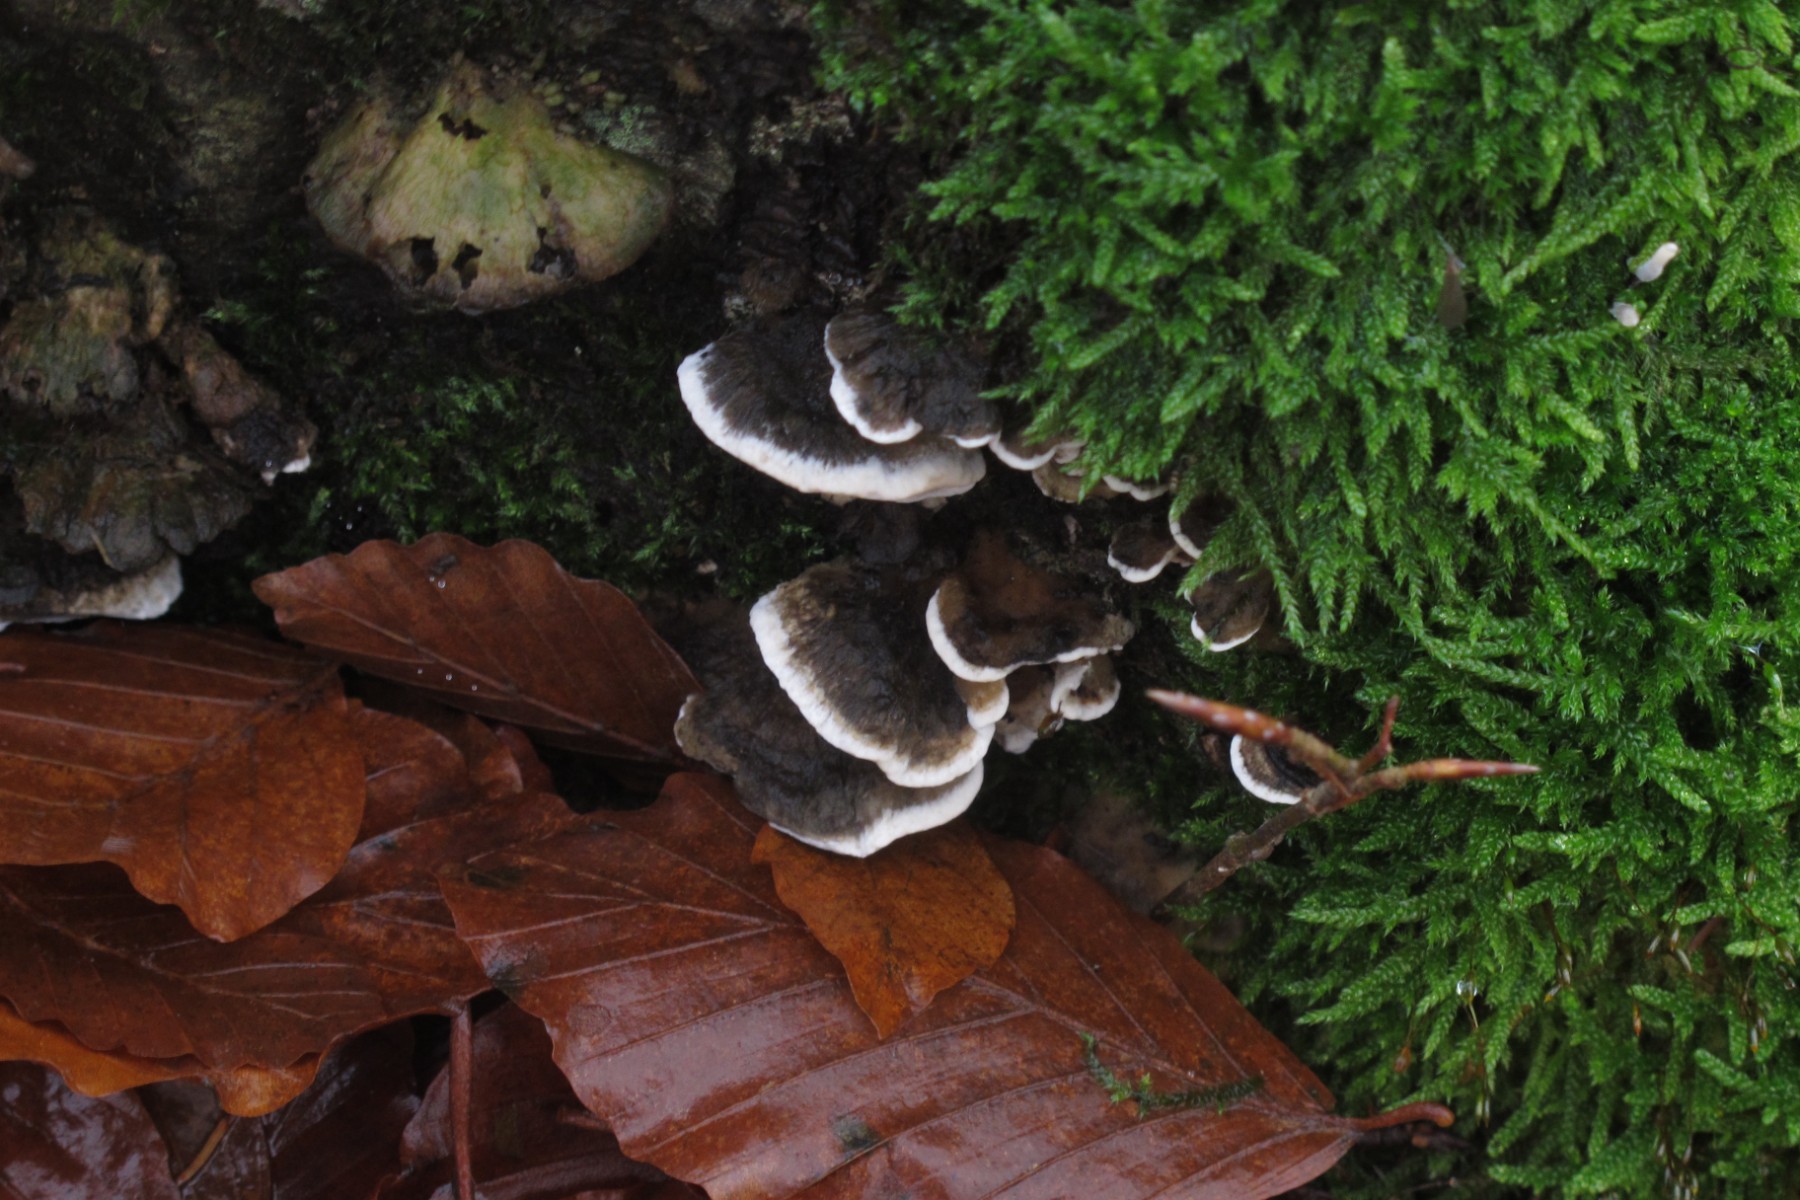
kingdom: Fungi
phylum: Basidiomycota
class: Agaricomycetes
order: Polyporales
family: Polyporaceae
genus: Trametes
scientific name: Trametes versicolor
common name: broget læderporesvamp
